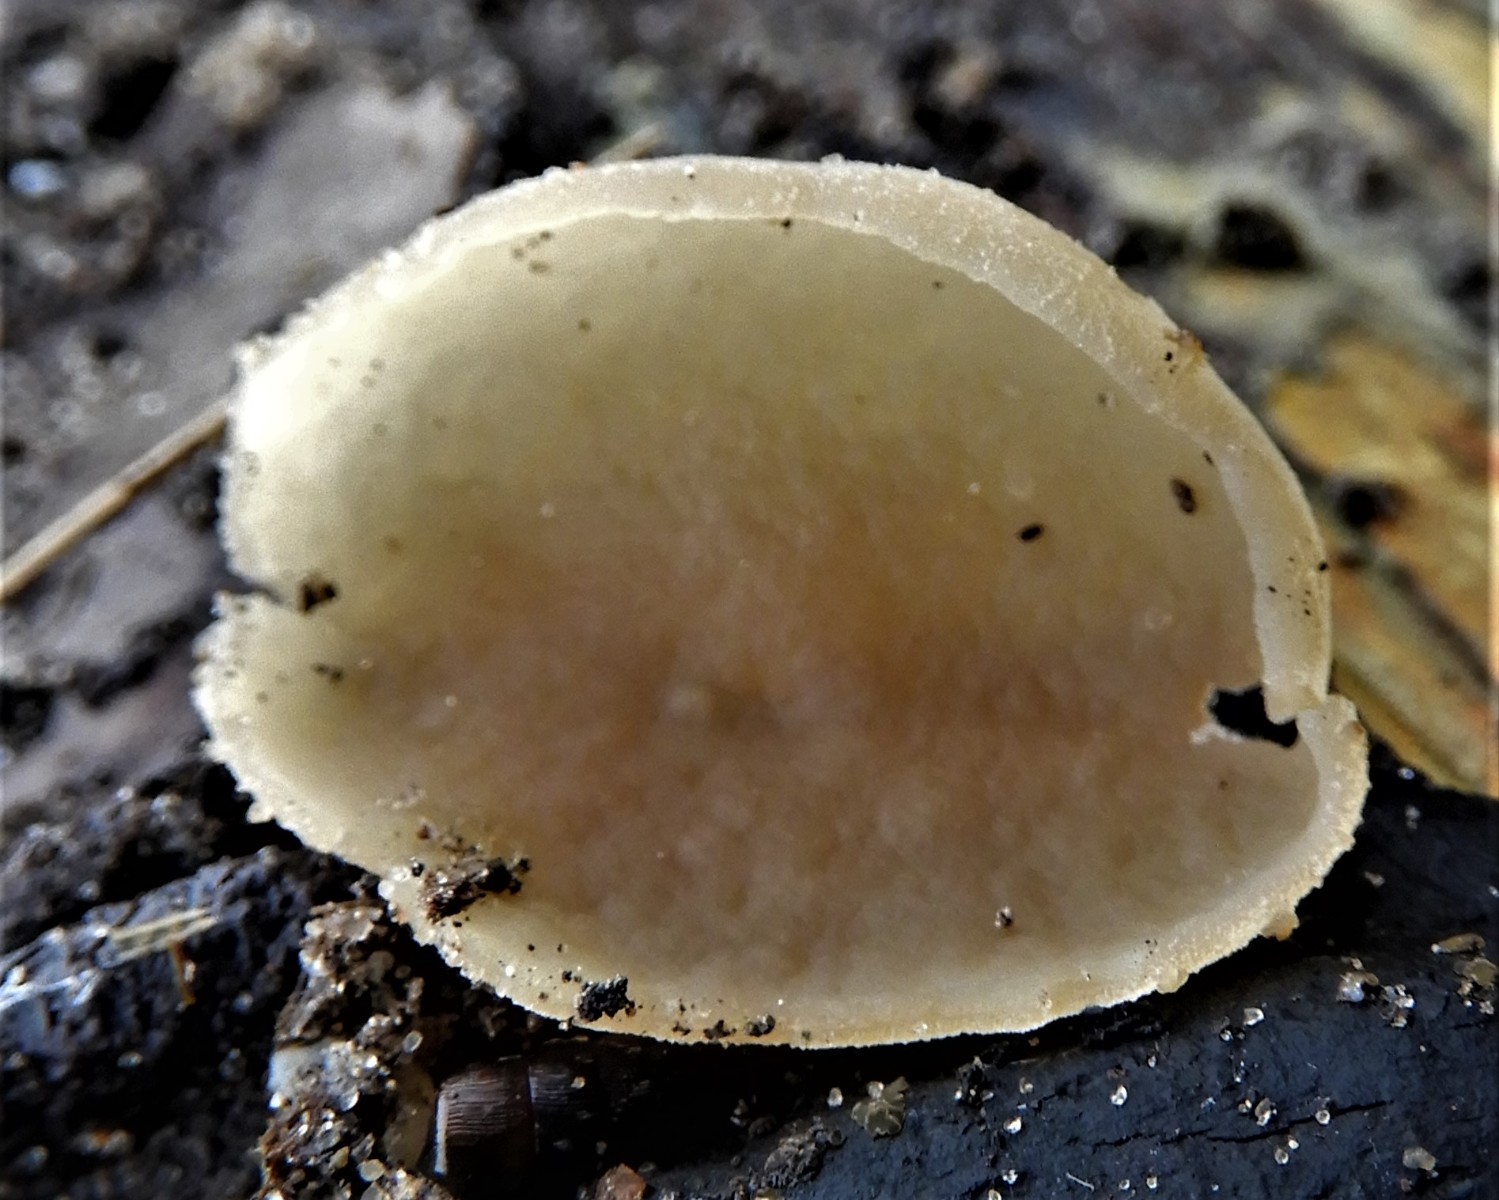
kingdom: Fungi
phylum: Ascomycota
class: Pezizomycetes
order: Pezizales
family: Pezizaceae
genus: Peziza
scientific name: Peziza varia
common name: Ved-bægersvamp
